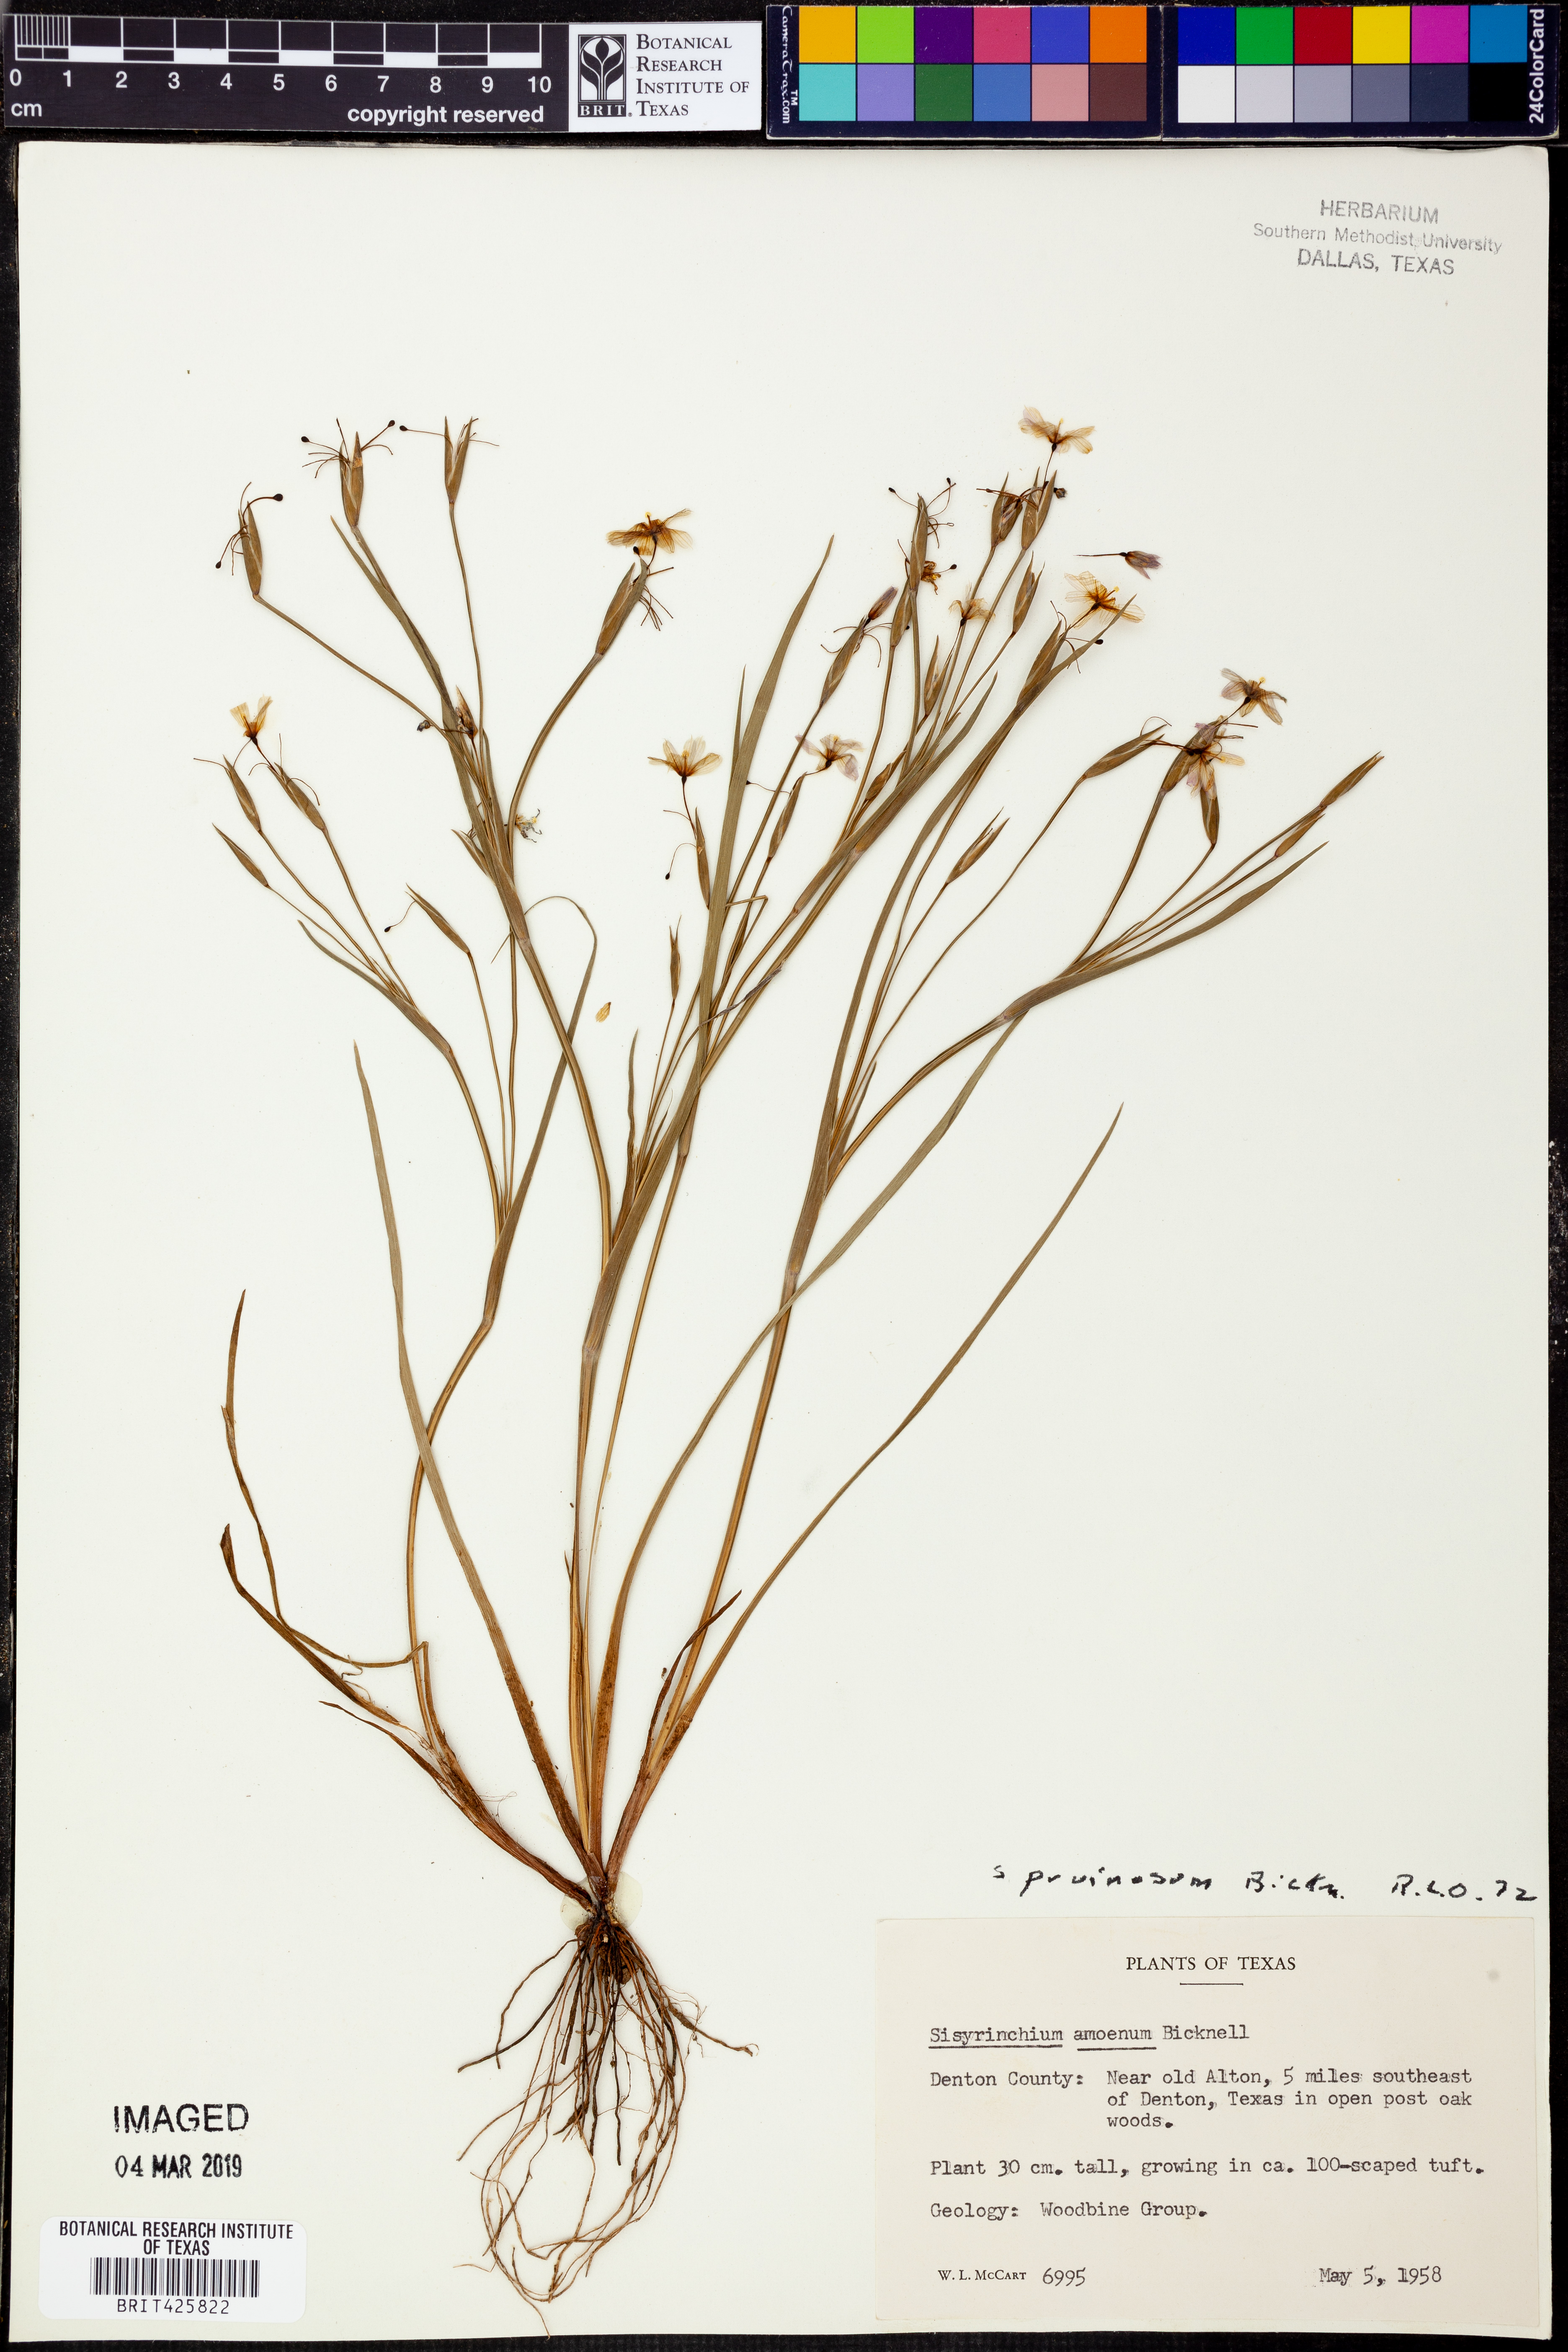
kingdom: Plantae
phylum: Tracheophyta
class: Liliopsida
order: Asparagales
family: Iridaceae
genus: Sisyrinchium
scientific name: Sisyrinchium pruinosum
